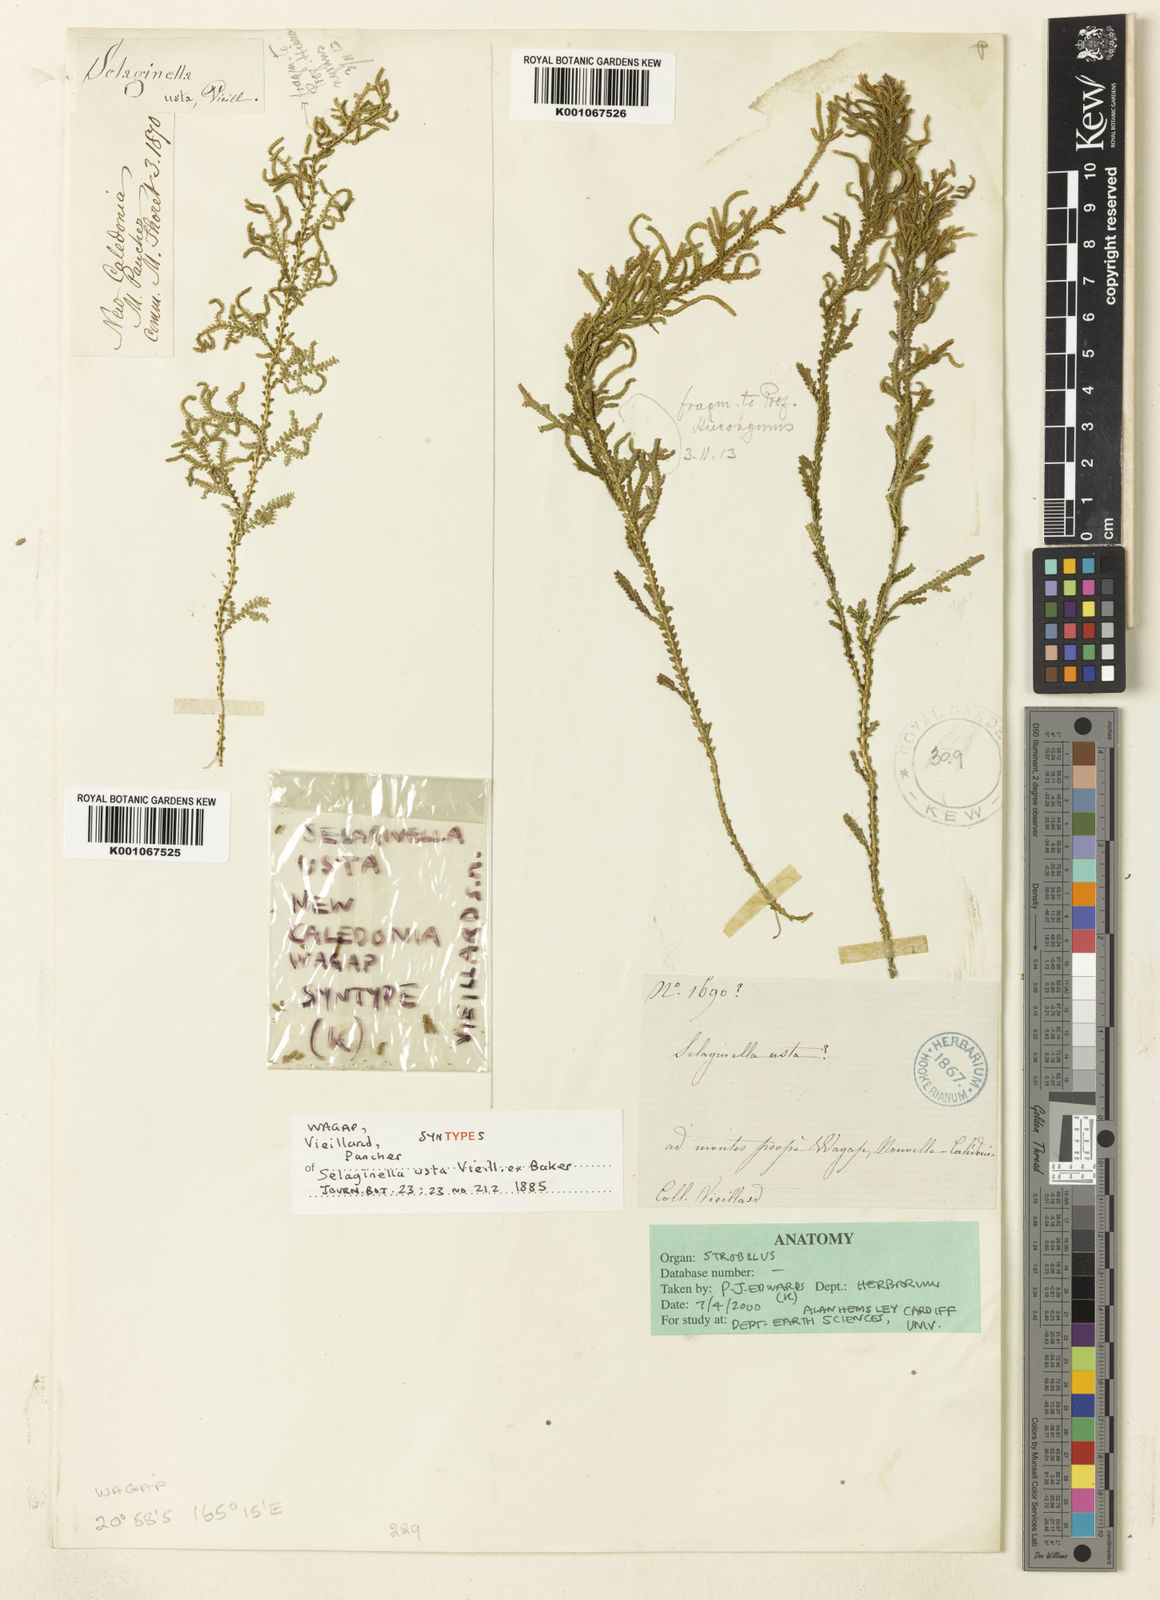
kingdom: Plantae
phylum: Tracheophyta
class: Lycopodiopsida
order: Selaginellales
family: Selaginellaceae
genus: Selaginella
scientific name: Selaginella
